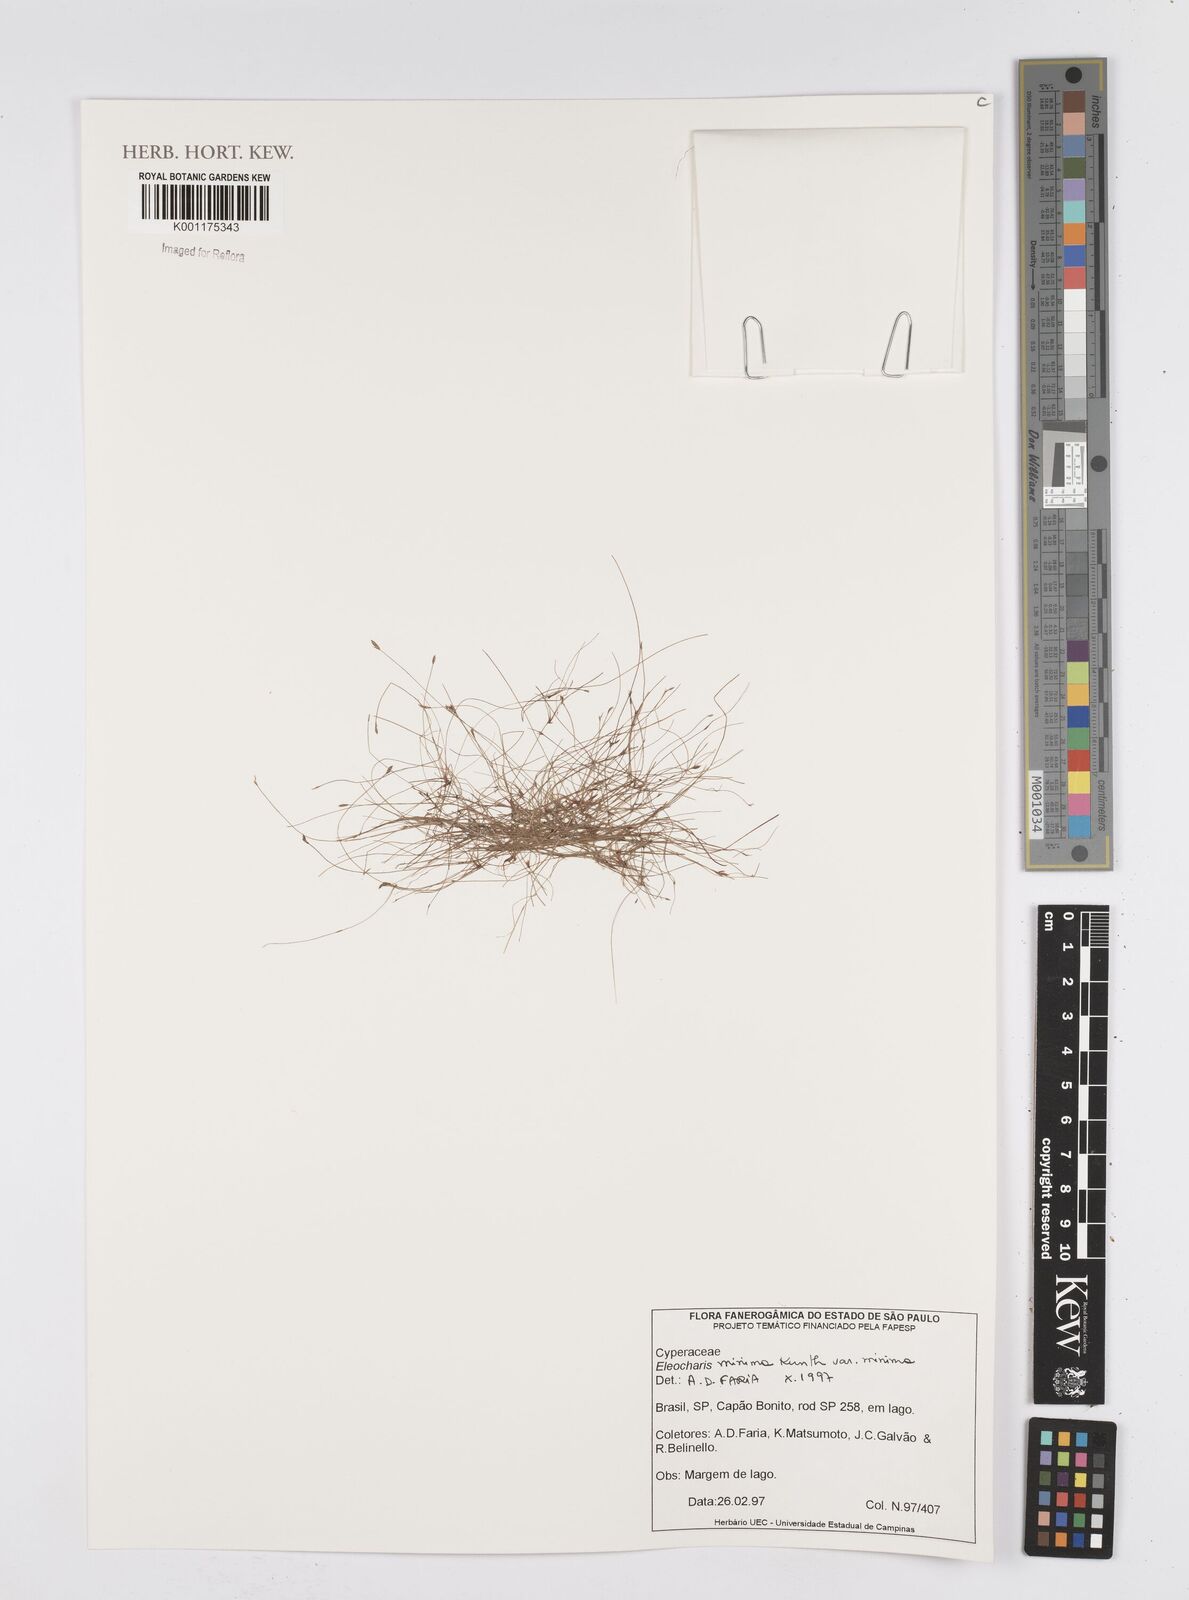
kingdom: Plantae
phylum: Tracheophyta
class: Liliopsida
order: Poales
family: Cyperaceae
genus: Eleocharis
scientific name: Eleocharis minima
